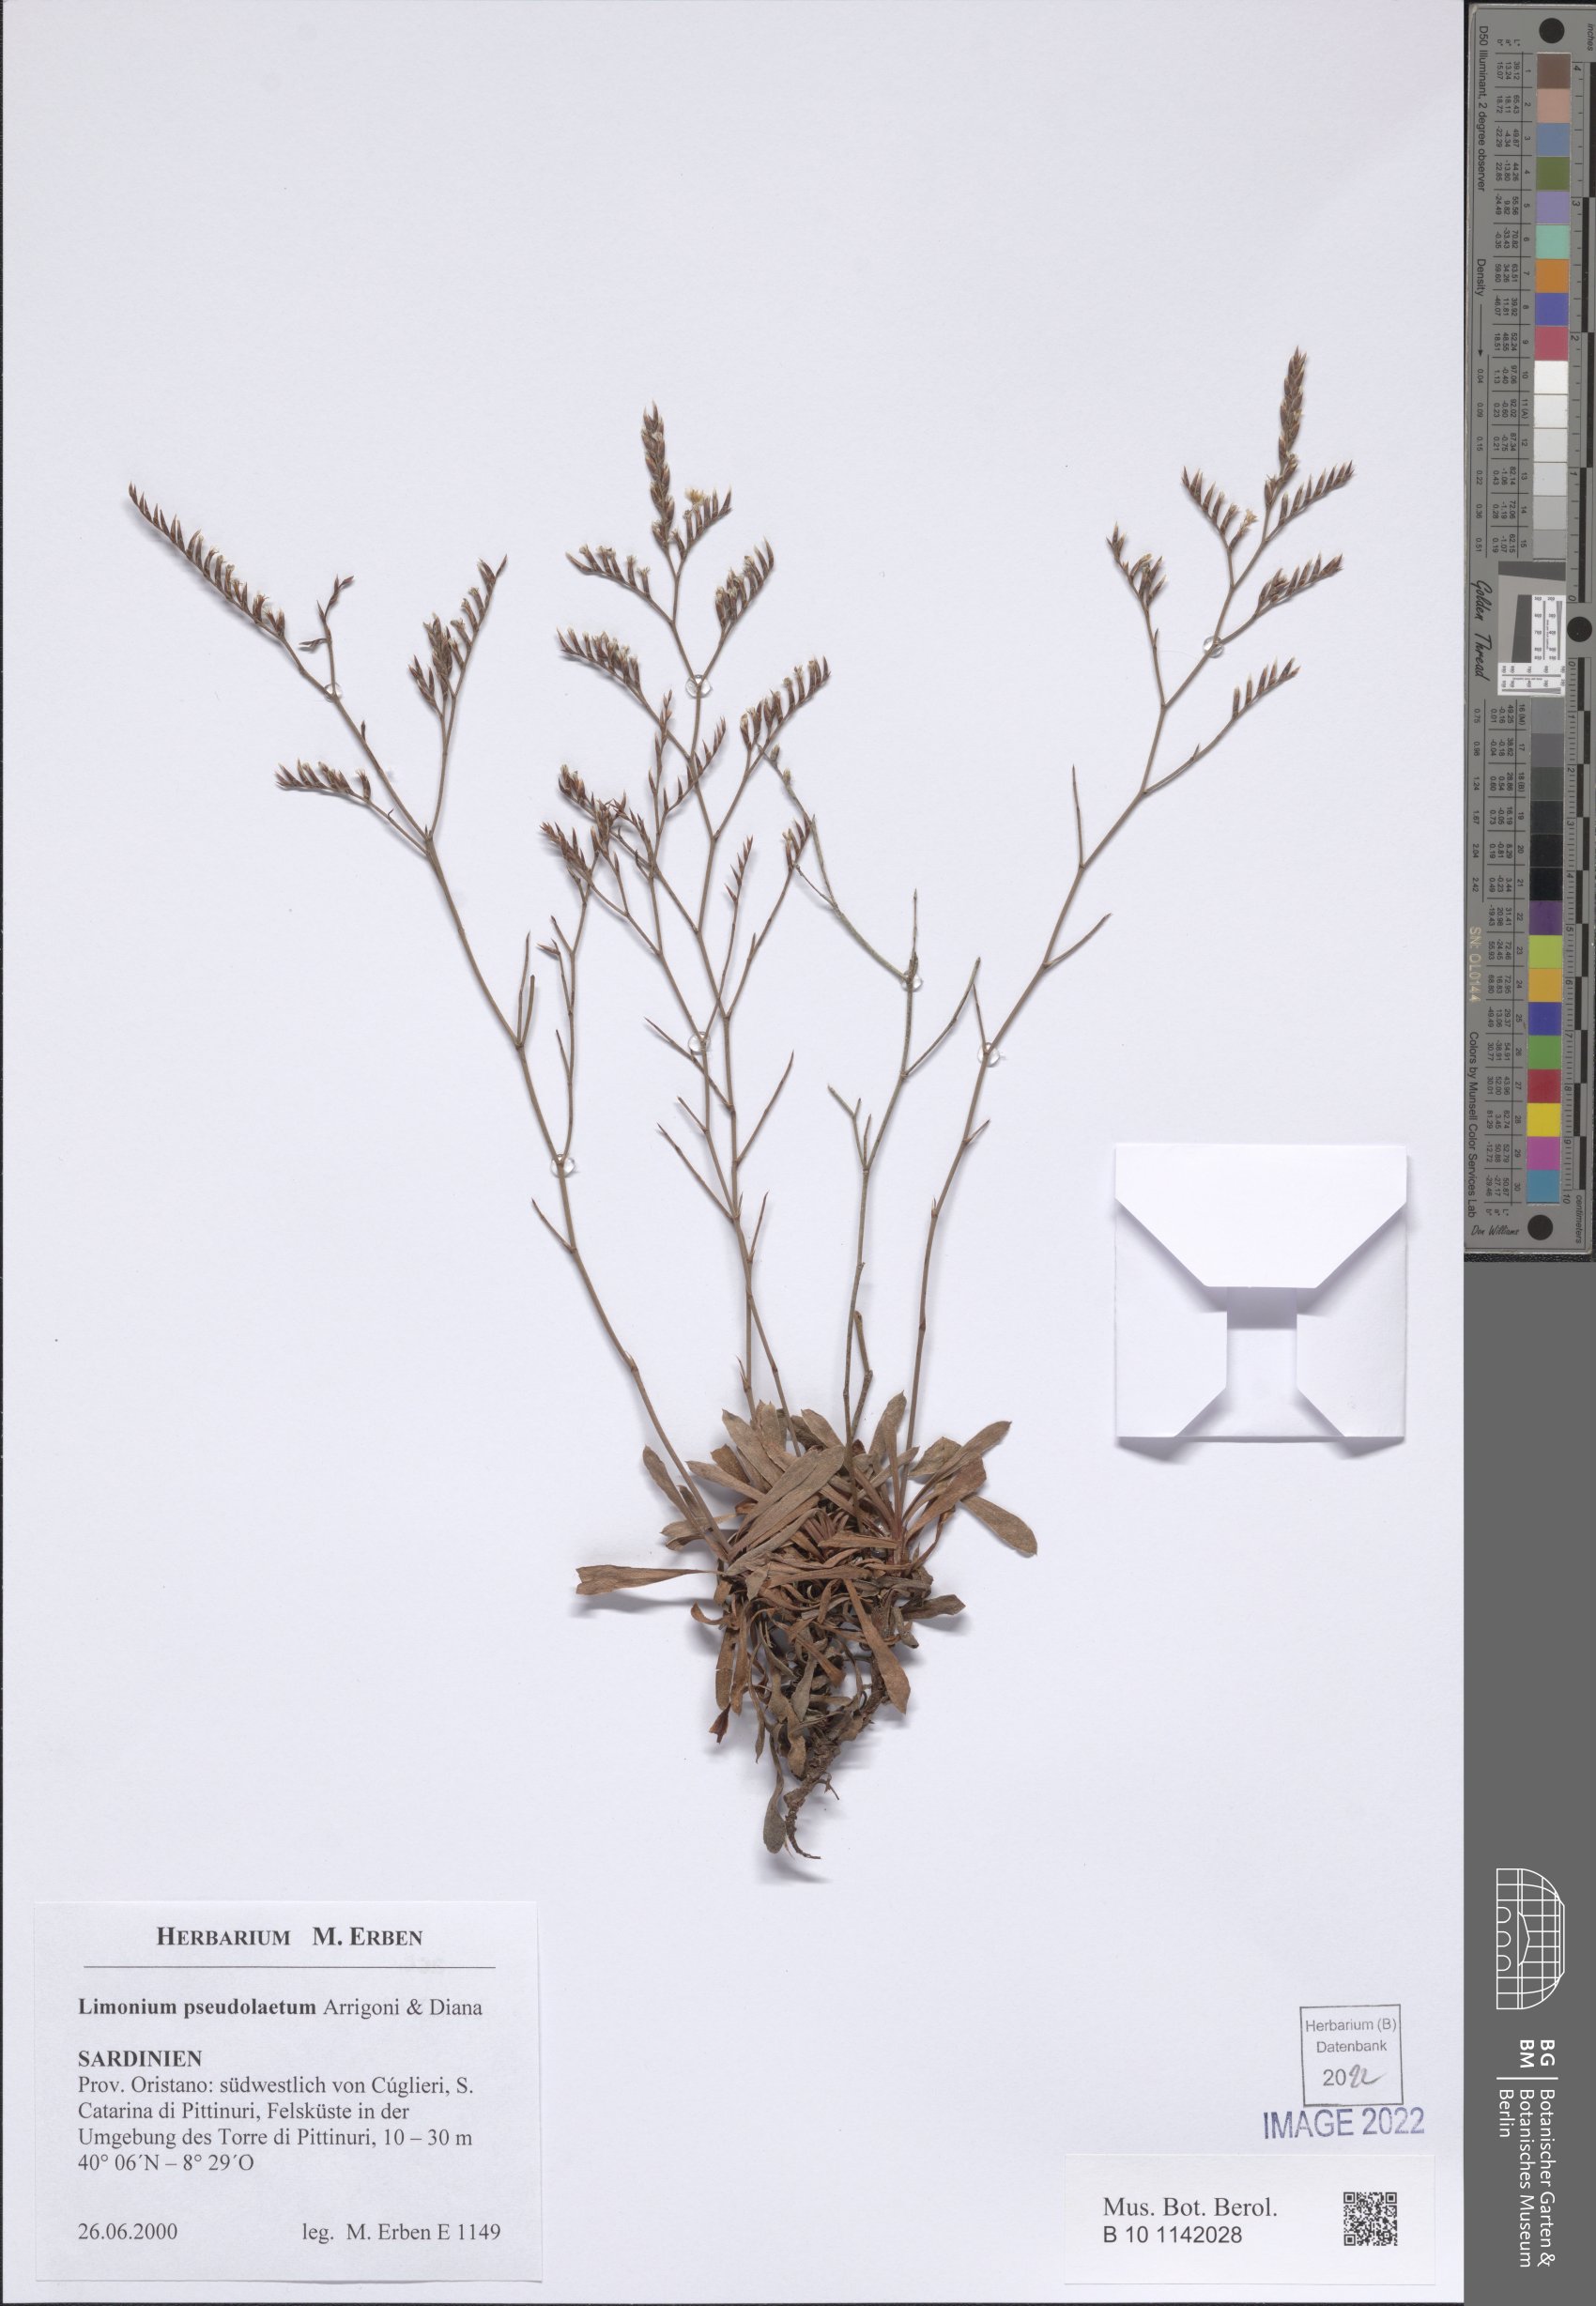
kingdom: Plantae
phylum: Tracheophyta
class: Magnoliopsida
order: Caryophyllales
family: Plumbaginaceae
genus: Limonium
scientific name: Limonium pseudolaetum
